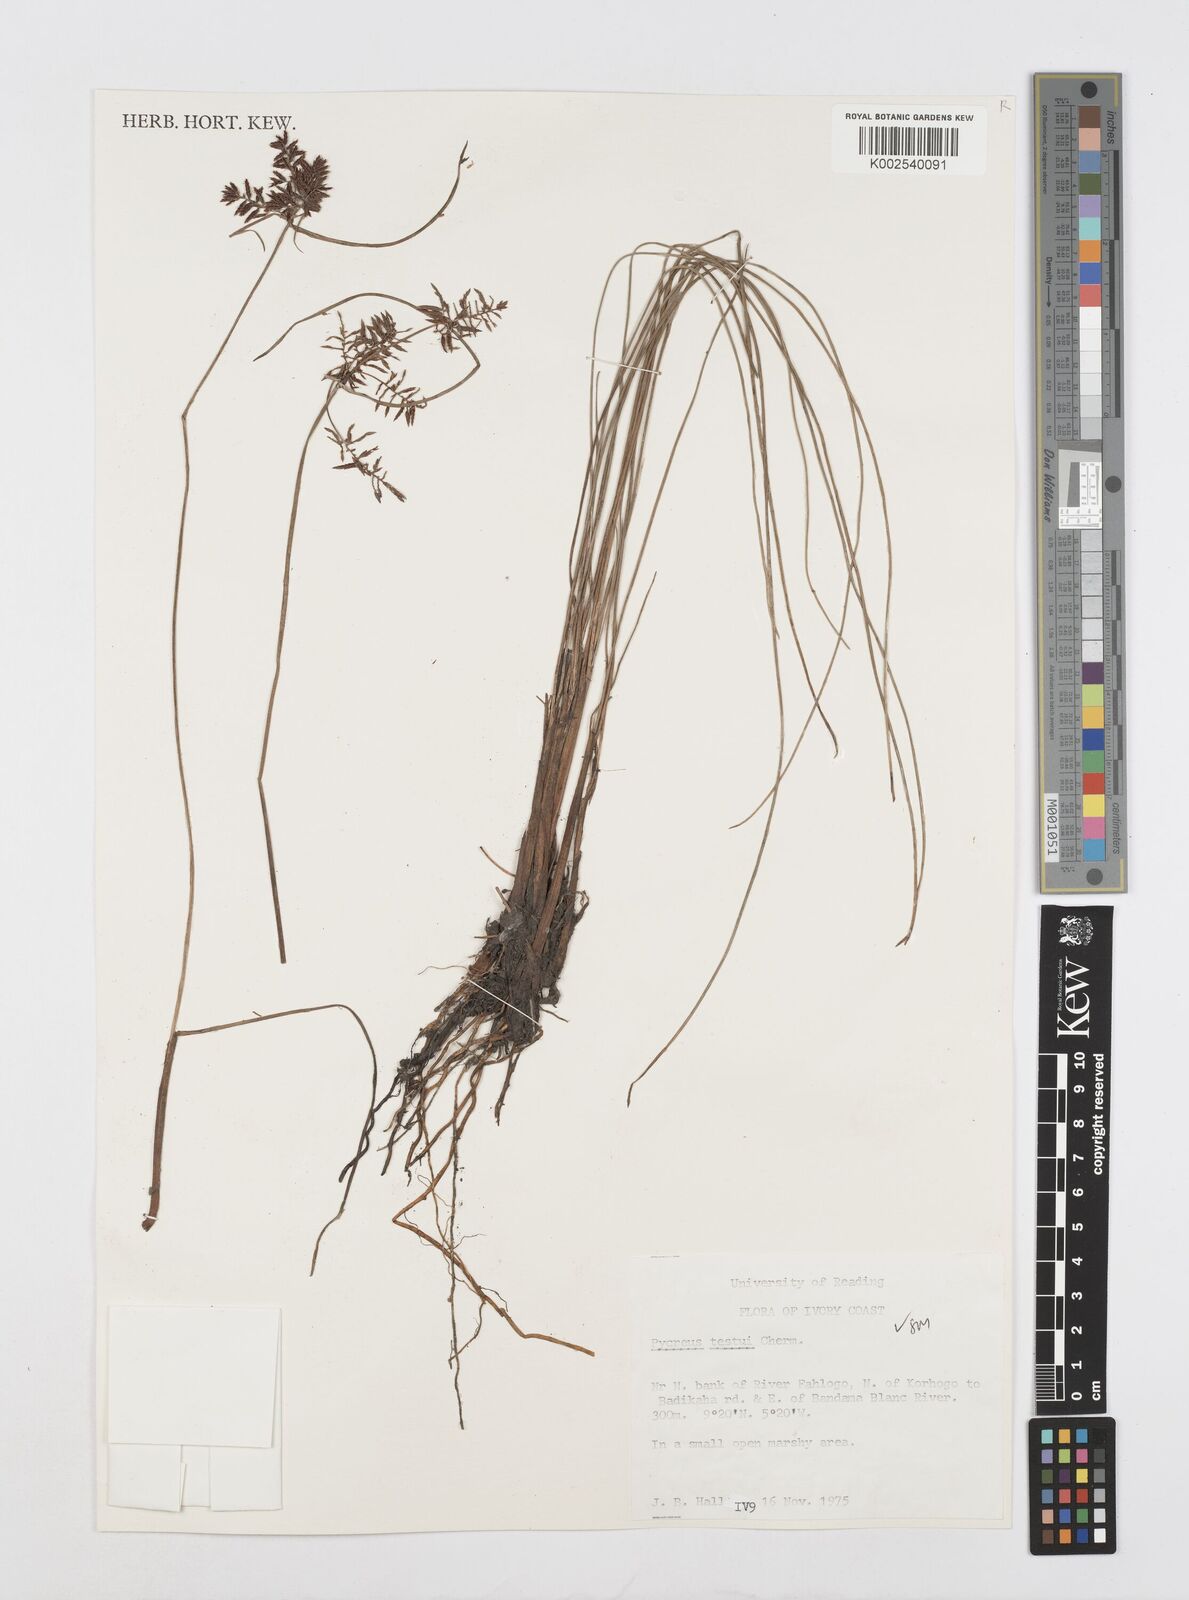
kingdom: Plantae
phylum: Tracheophyta
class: Liliopsida
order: Poales
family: Cyperaceae
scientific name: Cyperaceae
